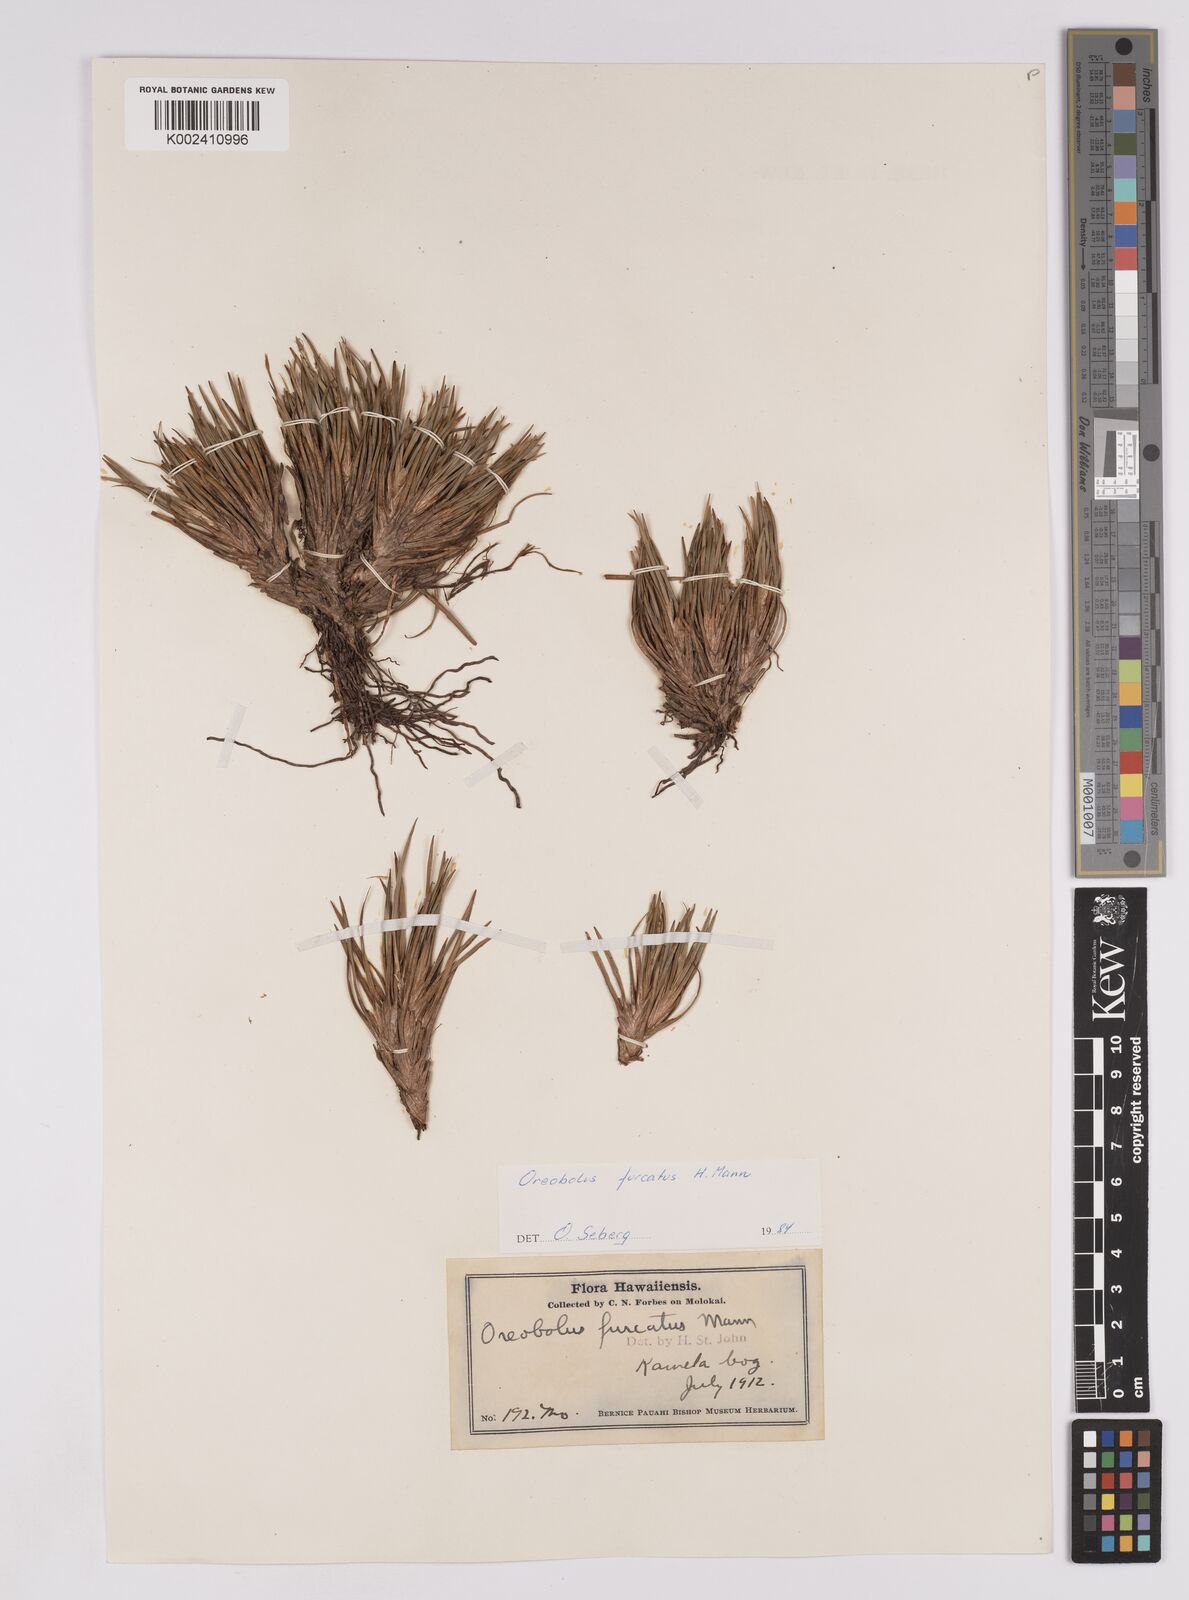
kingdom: Plantae
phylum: Tracheophyta
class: Liliopsida
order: Poales
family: Cyperaceae
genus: Oreobolus
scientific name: Oreobolus furcatus
